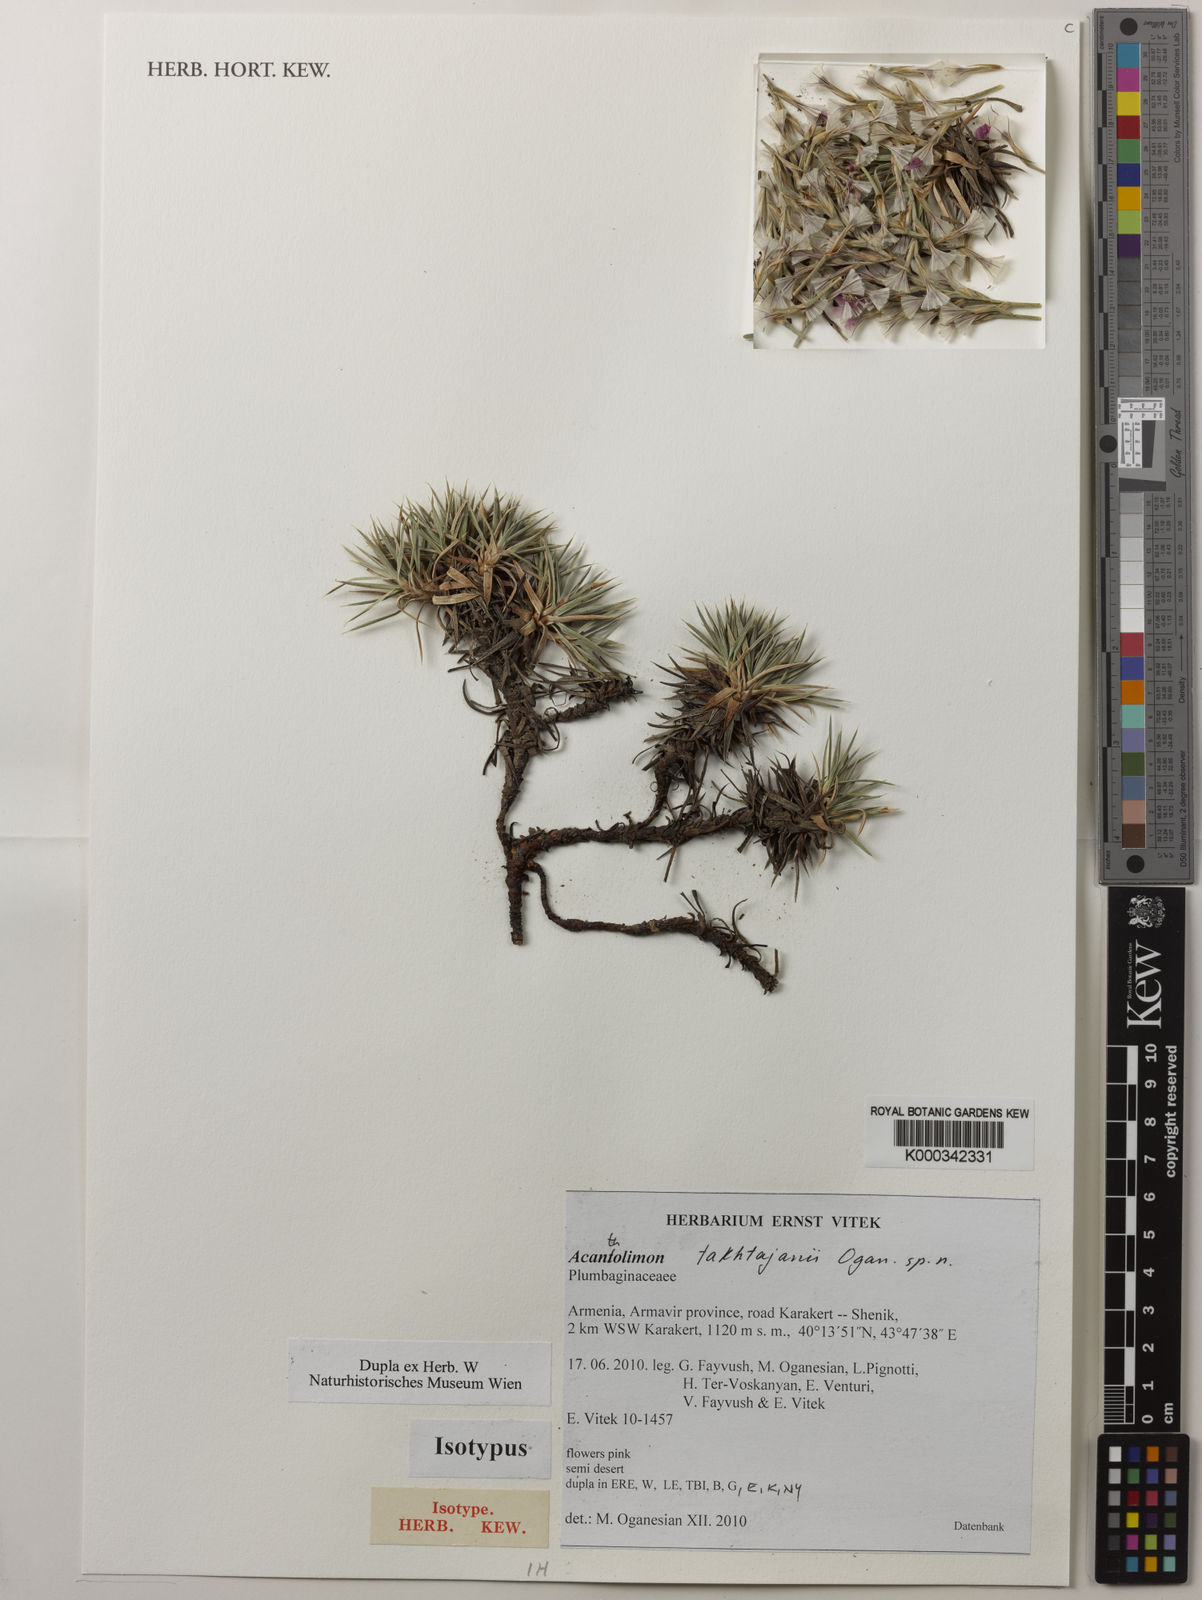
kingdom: Plantae
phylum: Tracheophyta
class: Magnoliopsida
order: Caryophyllales
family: Plumbaginaceae
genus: Acantholimon
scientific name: Acantholimon takhtajanii
